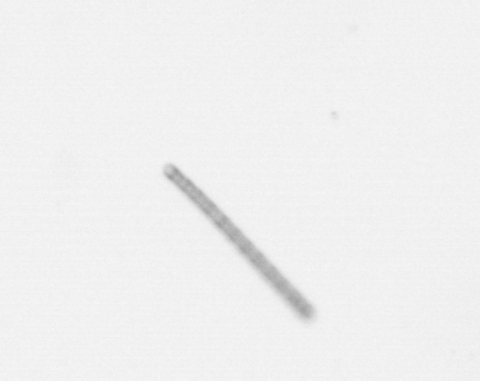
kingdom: Chromista
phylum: Ochrophyta
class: Bacillariophyceae
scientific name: Bacillariophyceae
